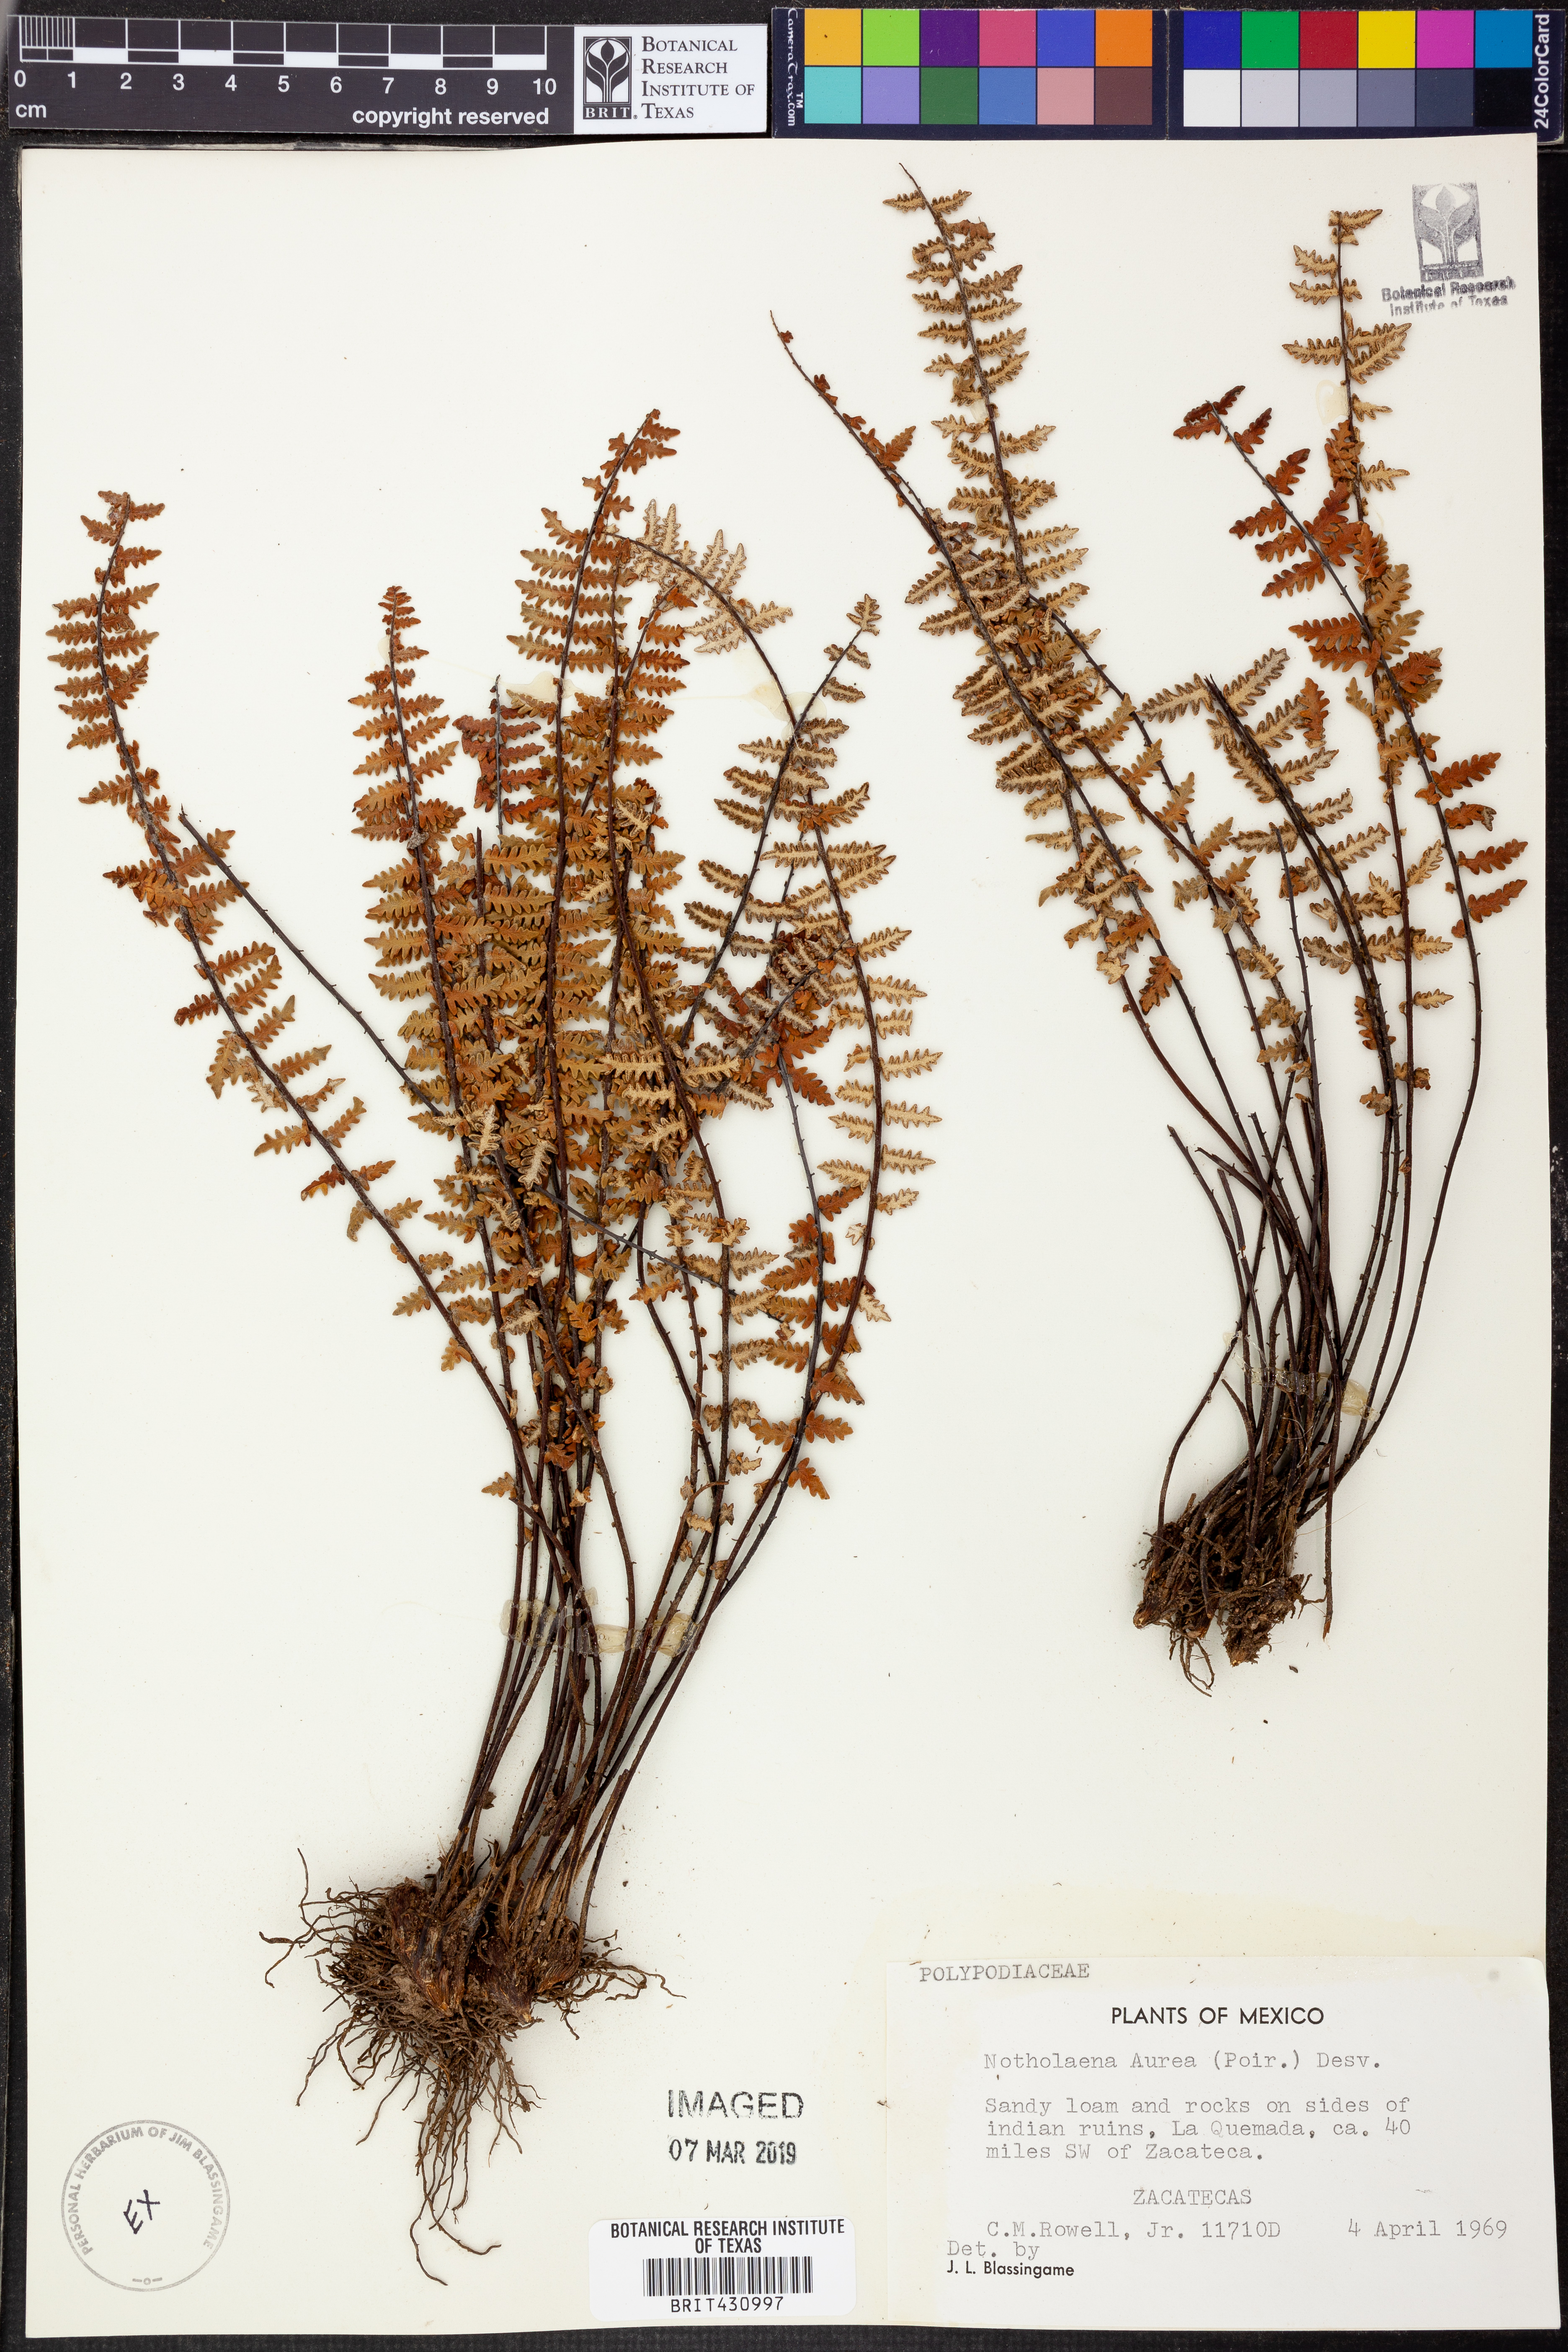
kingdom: Plantae
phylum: Tracheophyta
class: Polypodiopsida
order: Polypodiales
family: Pteridaceae
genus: Myriopteris
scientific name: Myriopteris aurea
